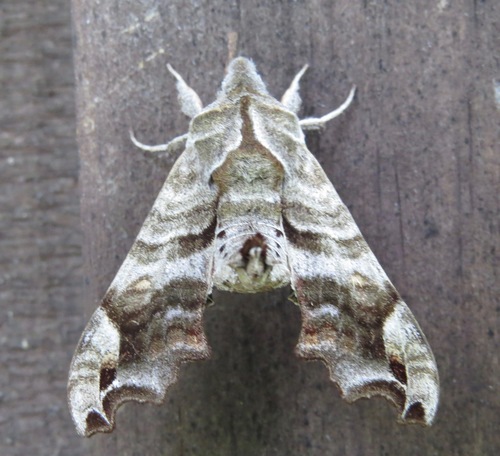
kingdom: Animalia
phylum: Arthropoda
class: Insecta
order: Lepidoptera
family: Sphingidae
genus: Deidamia
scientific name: Deidamia inscriptum
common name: Lettered sphinx
